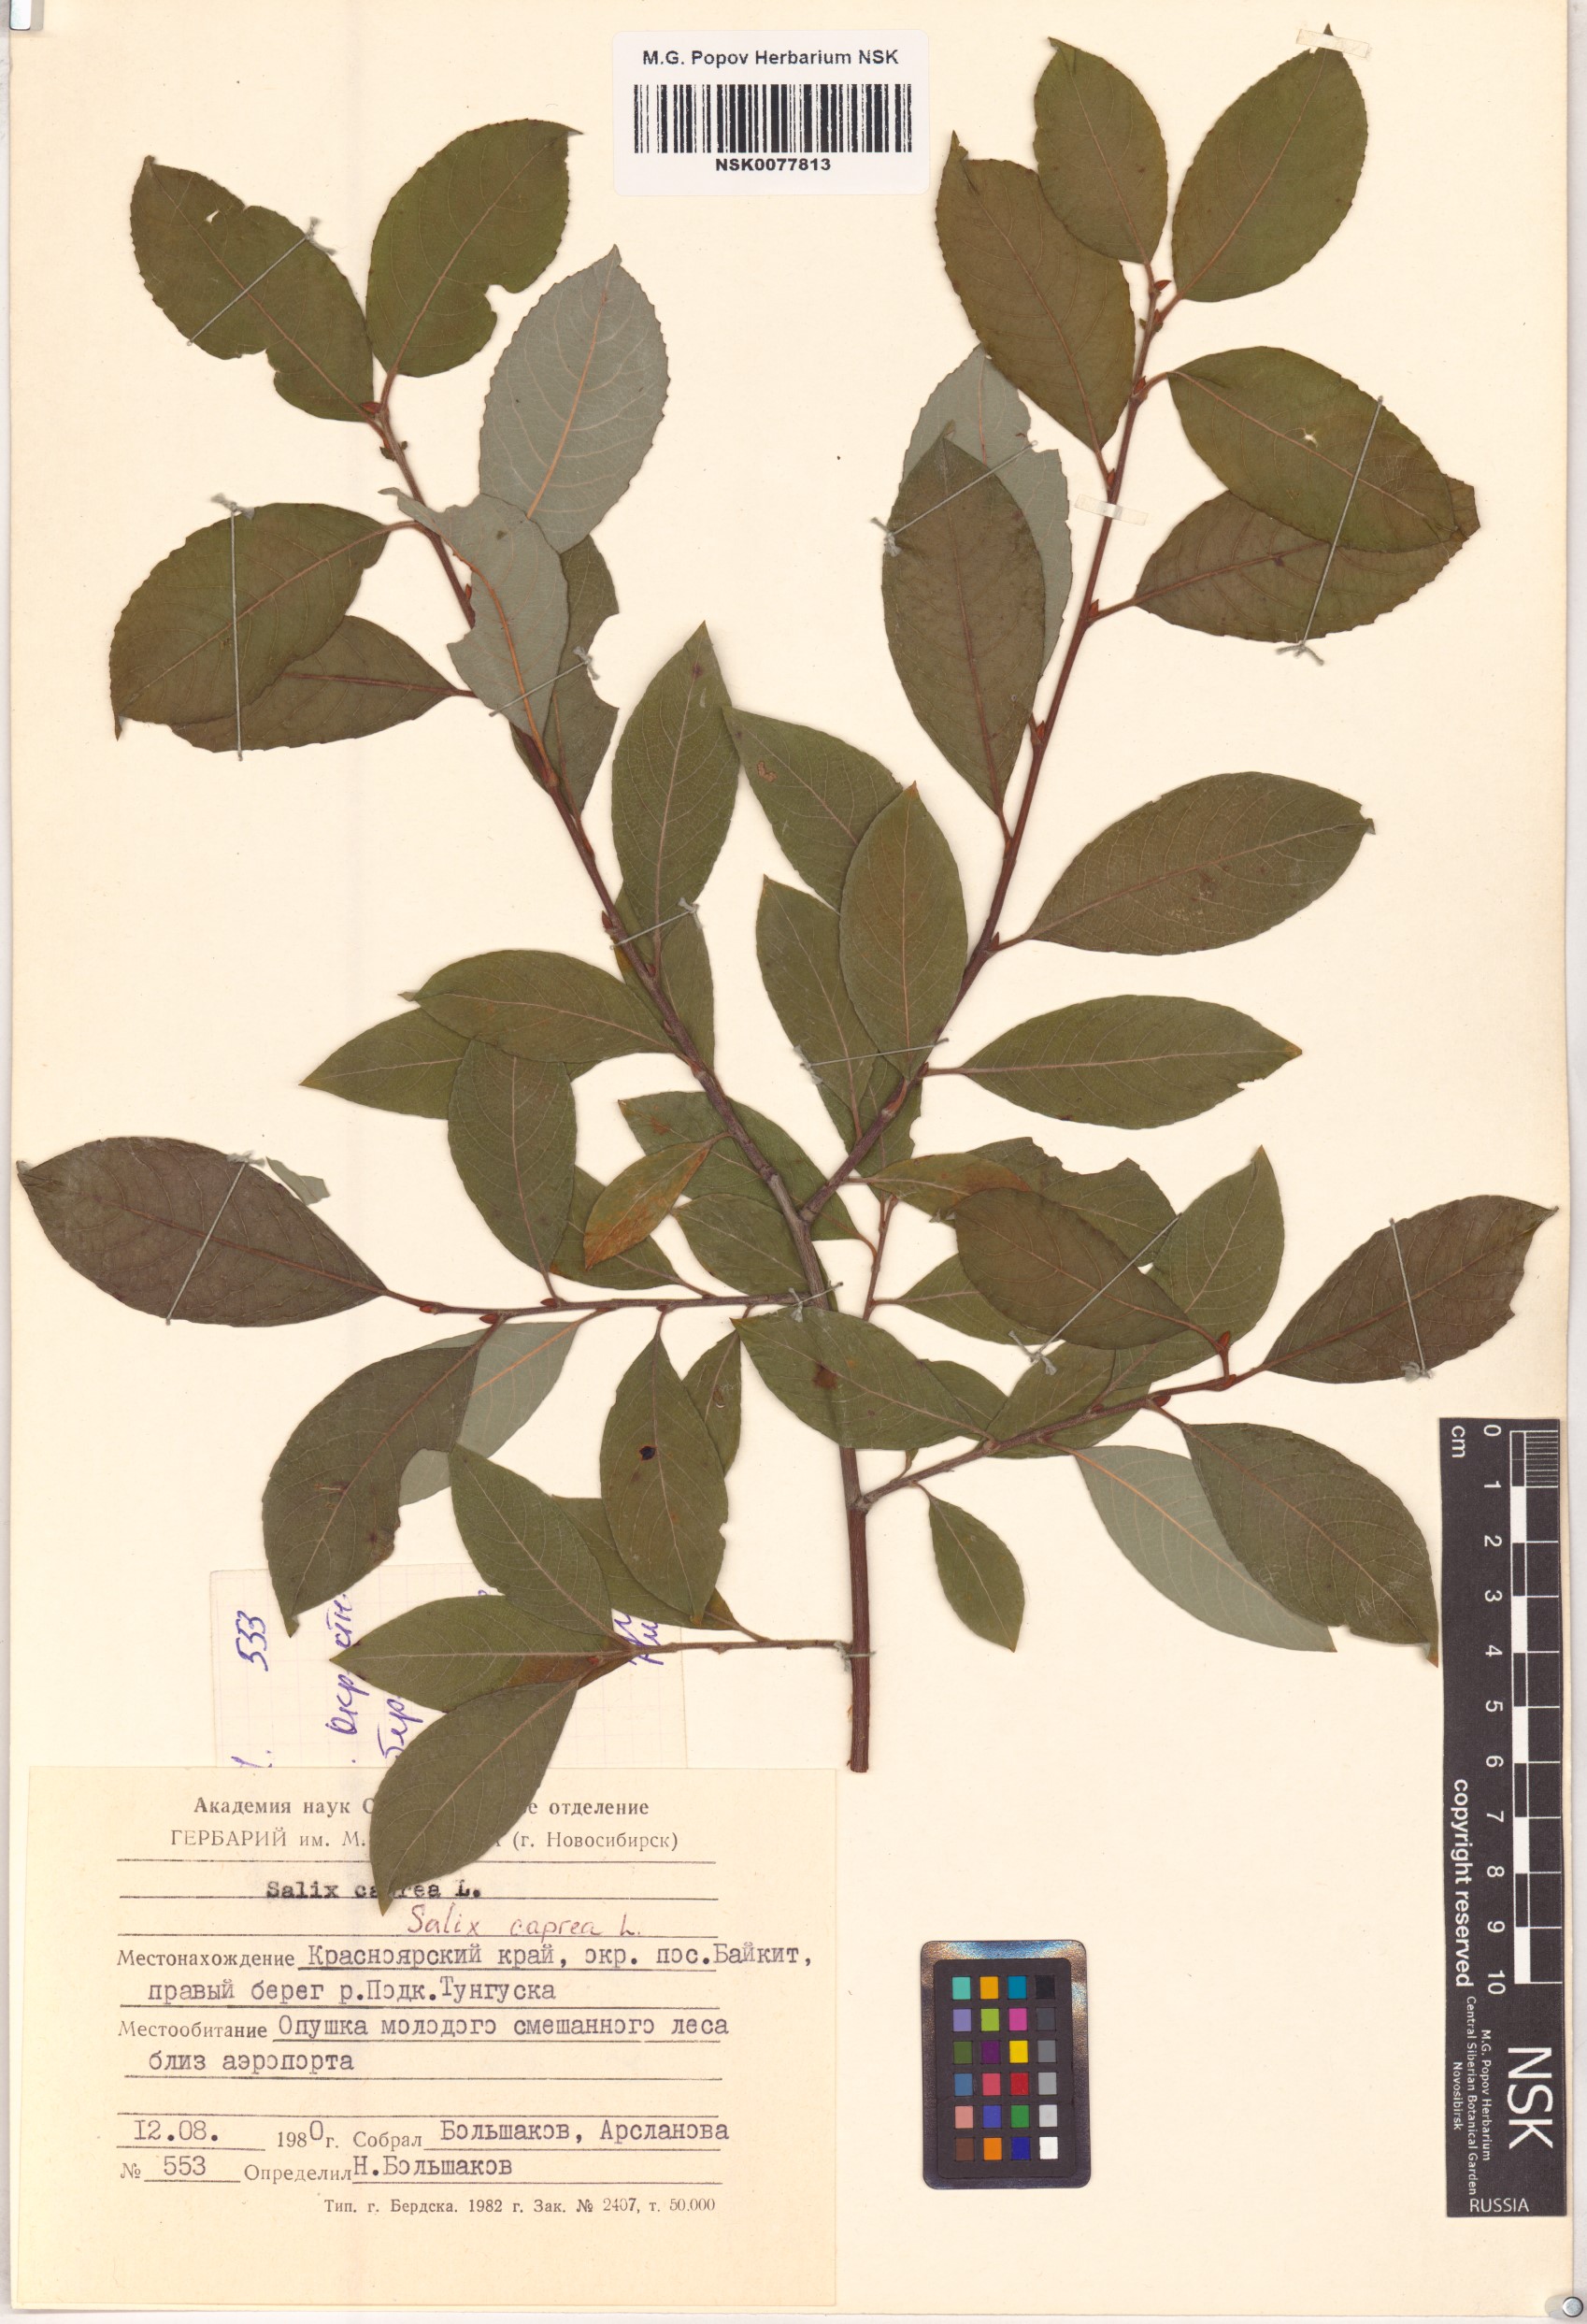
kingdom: Plantae
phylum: Tracheophyta
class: Magnoliopsida
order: Malpighiales
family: Salicaceae
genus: Salix
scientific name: Salix caprea
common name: Goat willow
